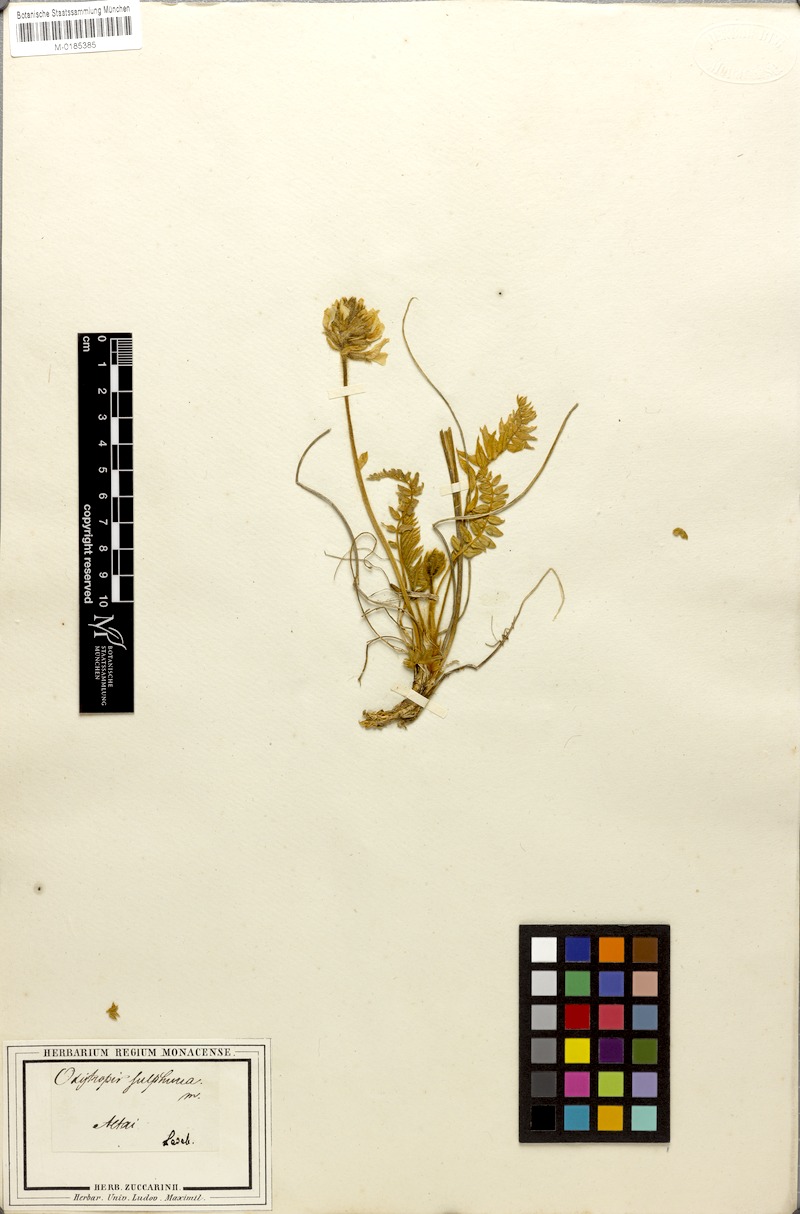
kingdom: Plantae
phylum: Tracheophyta
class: Magnoliopsida
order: Fabales
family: Fabaceae
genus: Oxytropis
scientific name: Oxytropis sulphurea
